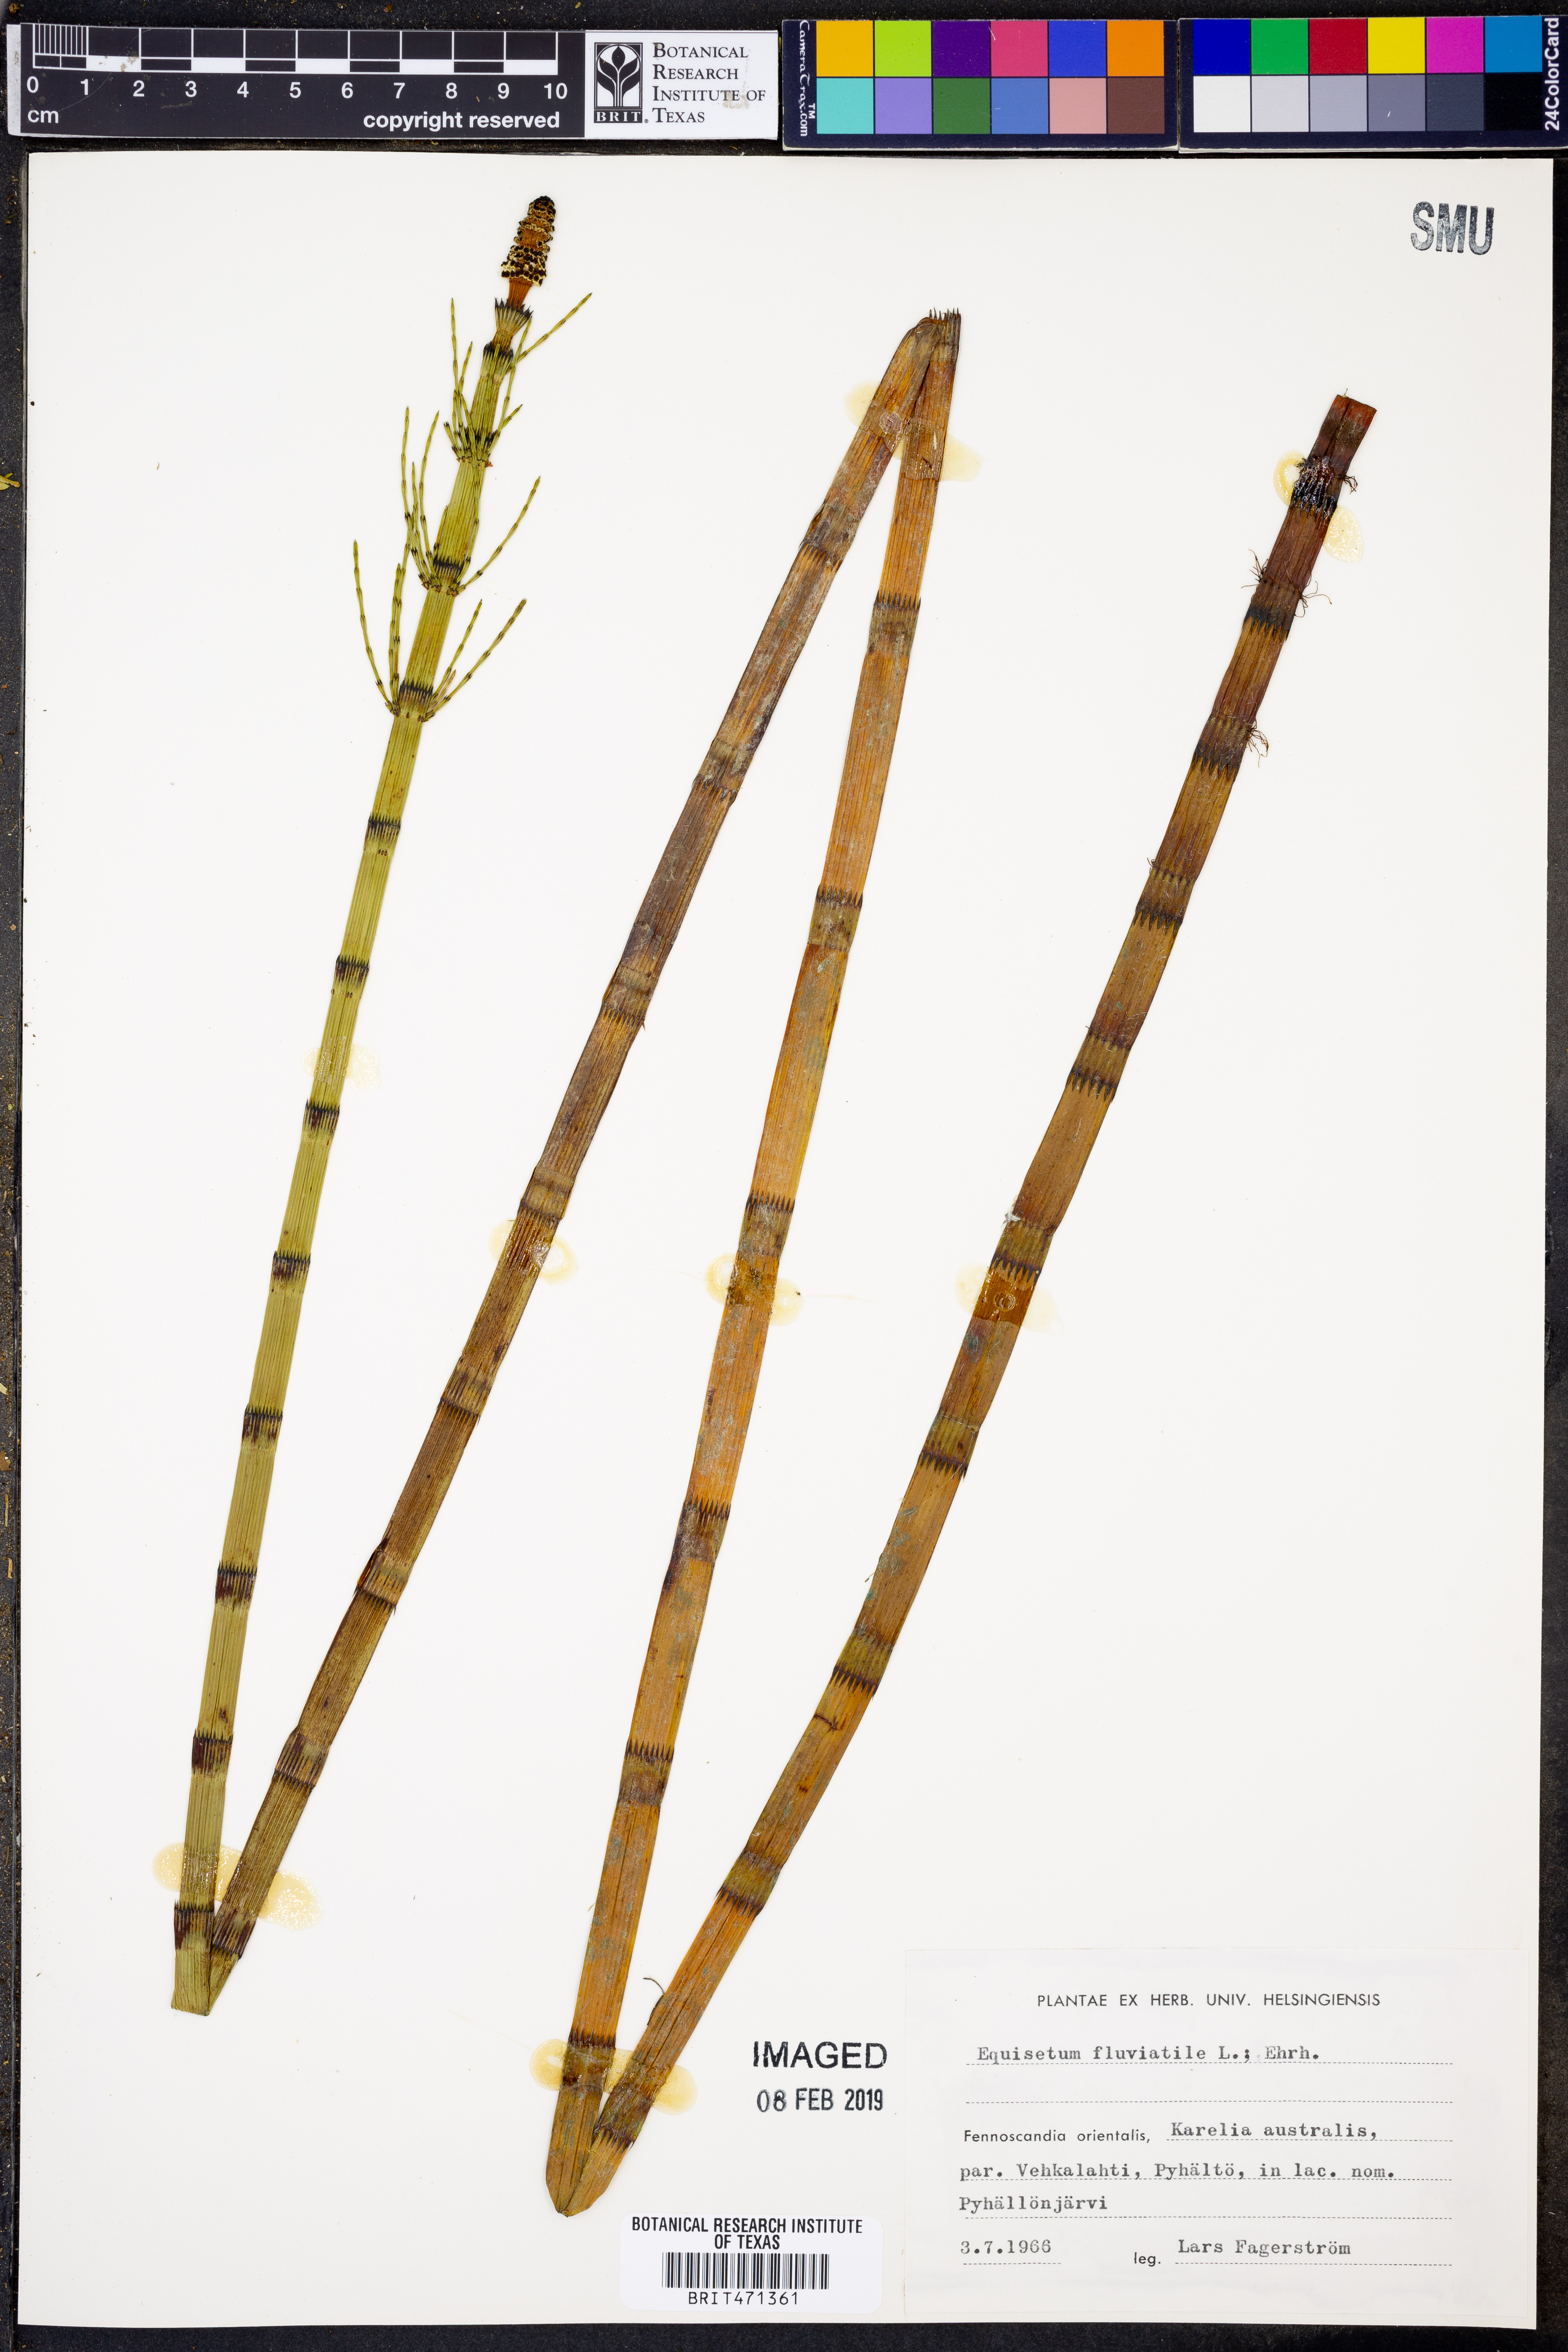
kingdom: Plantae
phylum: Tracheophyta
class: Polypodiopsida
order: Equisetales
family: Equisetaceae
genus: Equisetum
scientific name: Equisetum fluviatile
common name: Water horsetail
